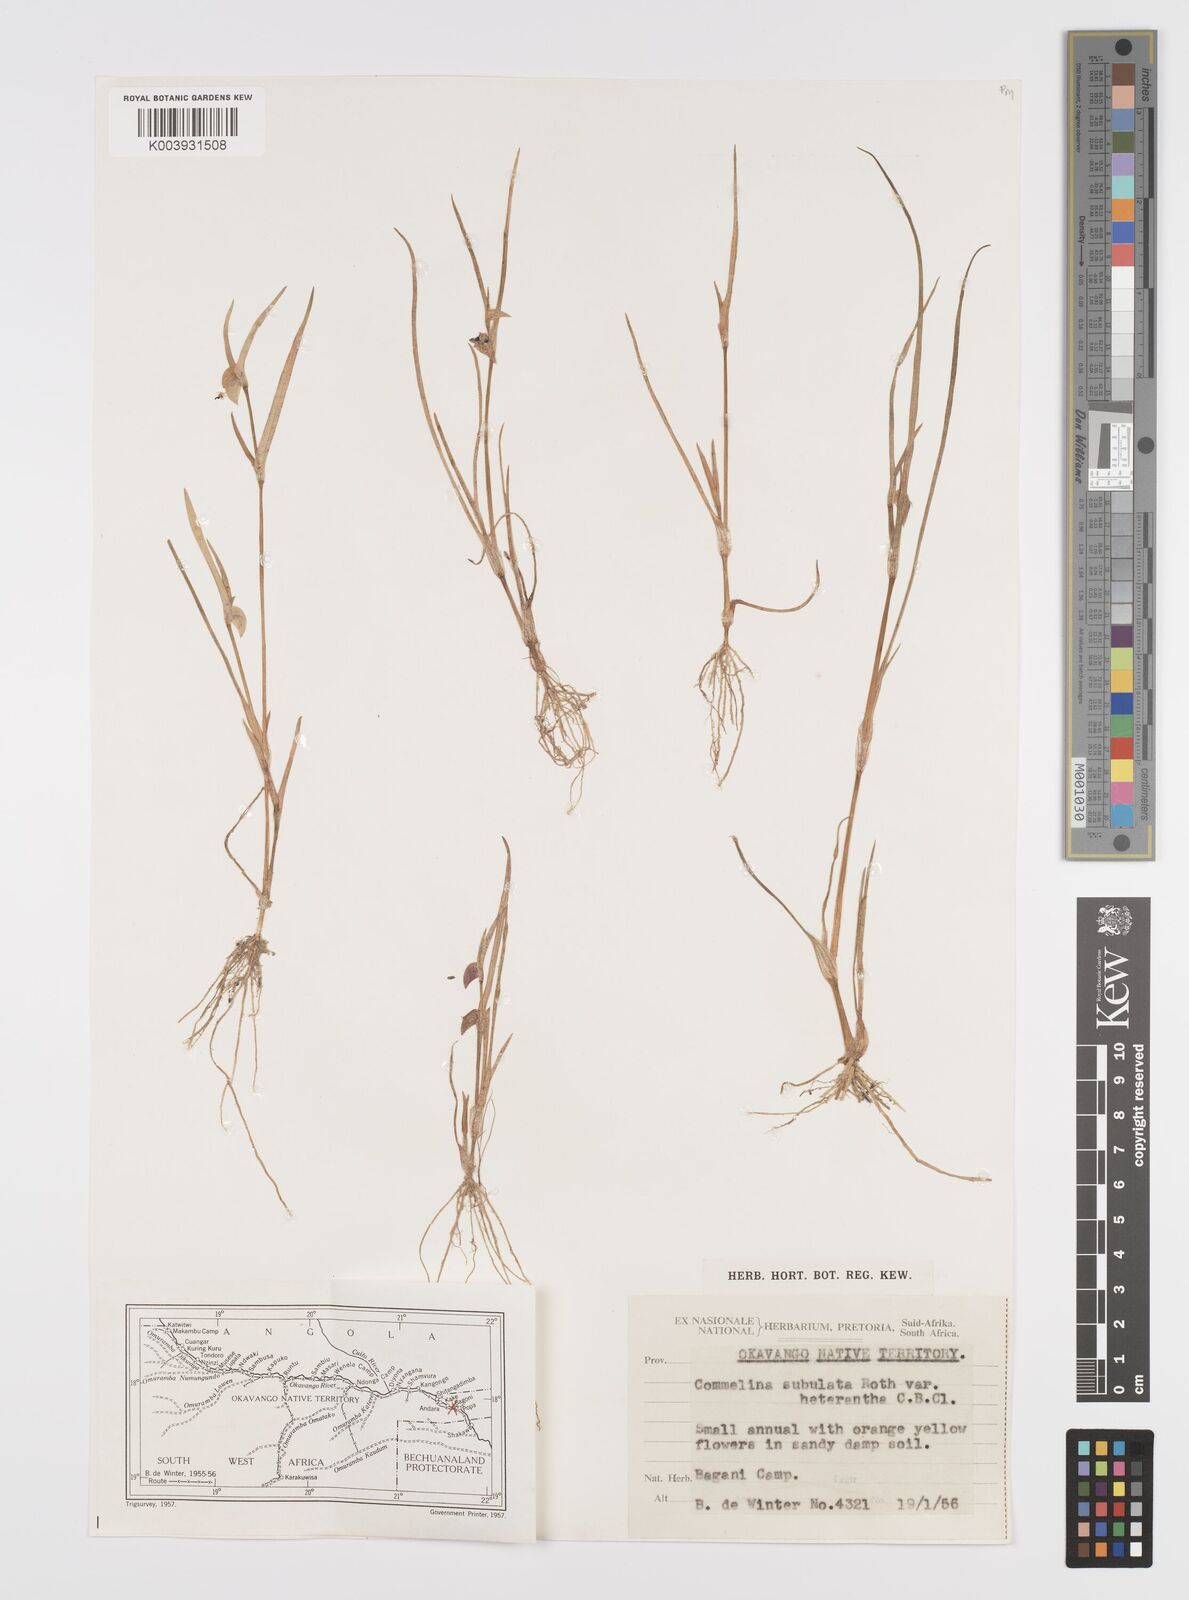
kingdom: Plantae
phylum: Tracheophyta
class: Liliopsida
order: Commelinales
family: Commelinaceae
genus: Commelina
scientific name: Commelina subulata
